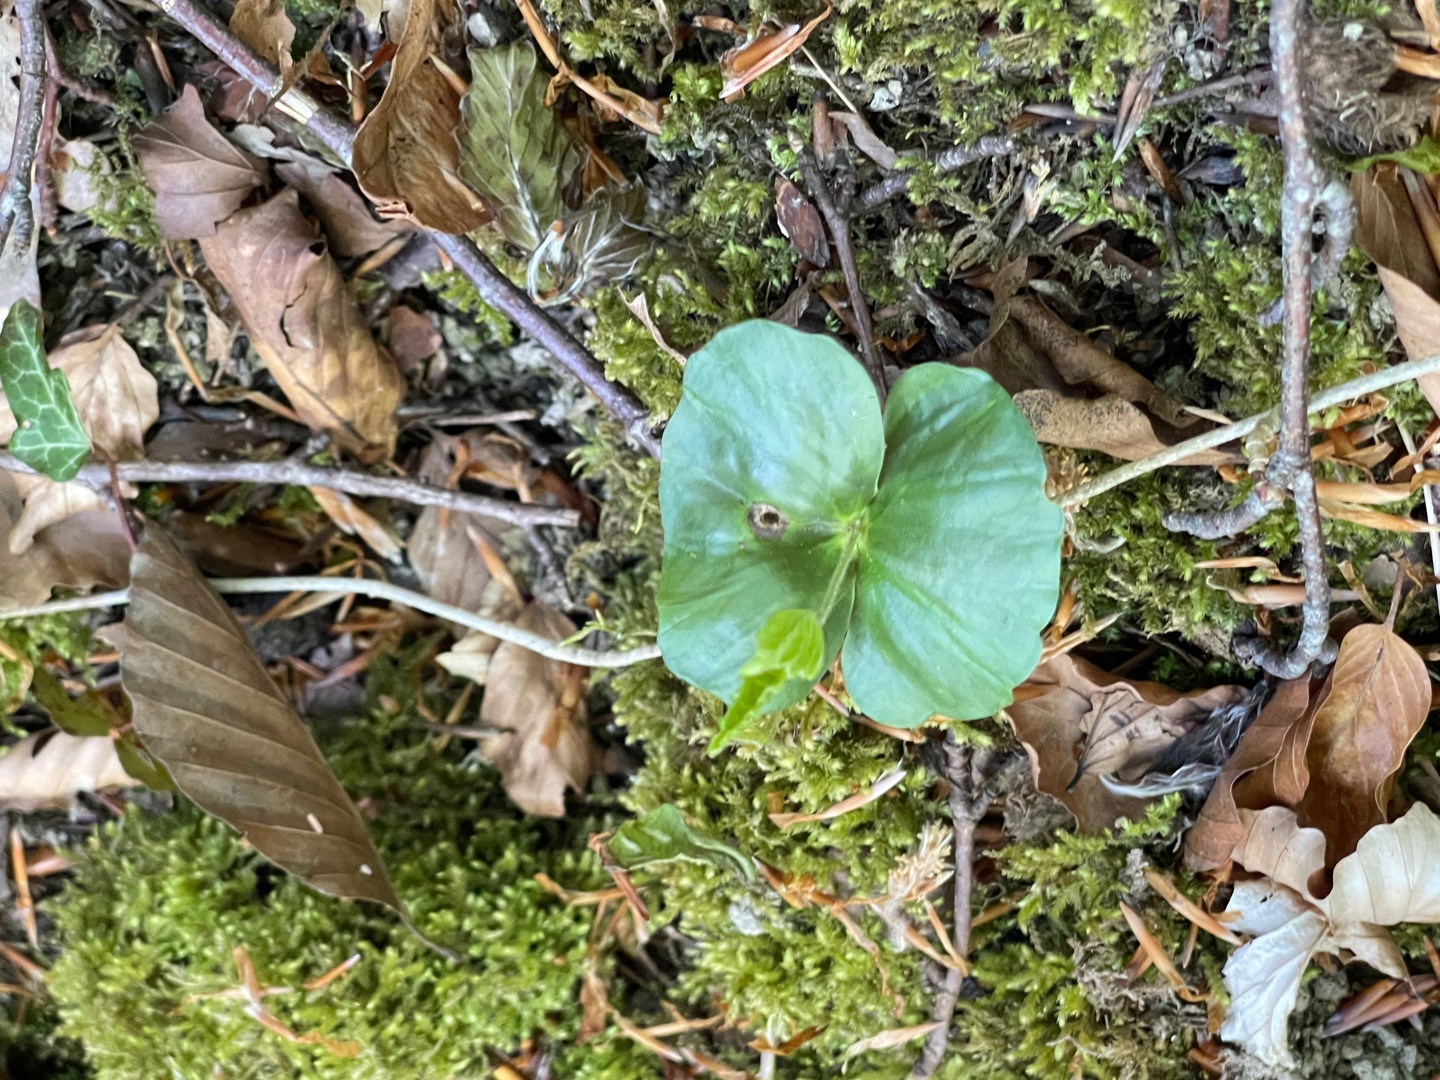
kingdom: Plantae
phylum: Tracheophyta
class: Magnoliopsida
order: Fagales
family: Fagaceae
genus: Fagus
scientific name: Fagus sylvatica
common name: Bøg
